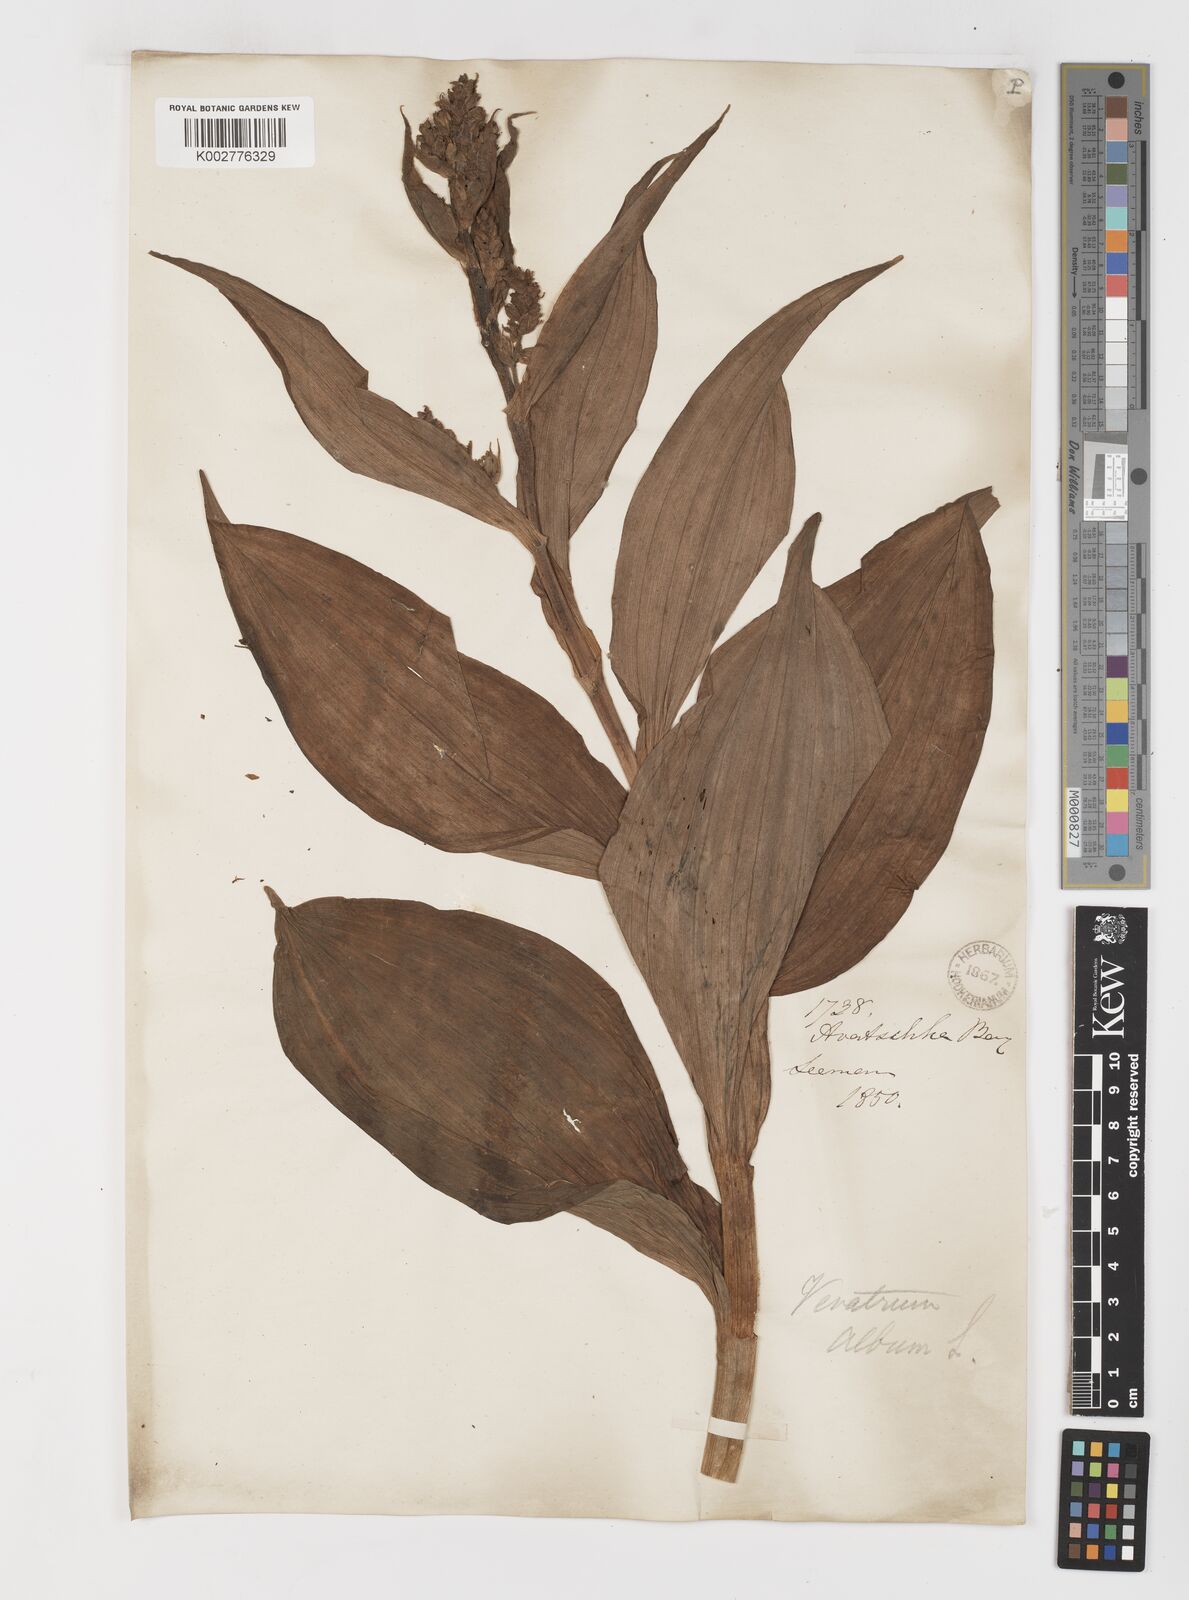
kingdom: Plantae
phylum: Tracheophyta
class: Liliopsida
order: Liliales
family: Melanthiaceae
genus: Veratrum
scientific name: Veratrum album
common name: White veratrum
